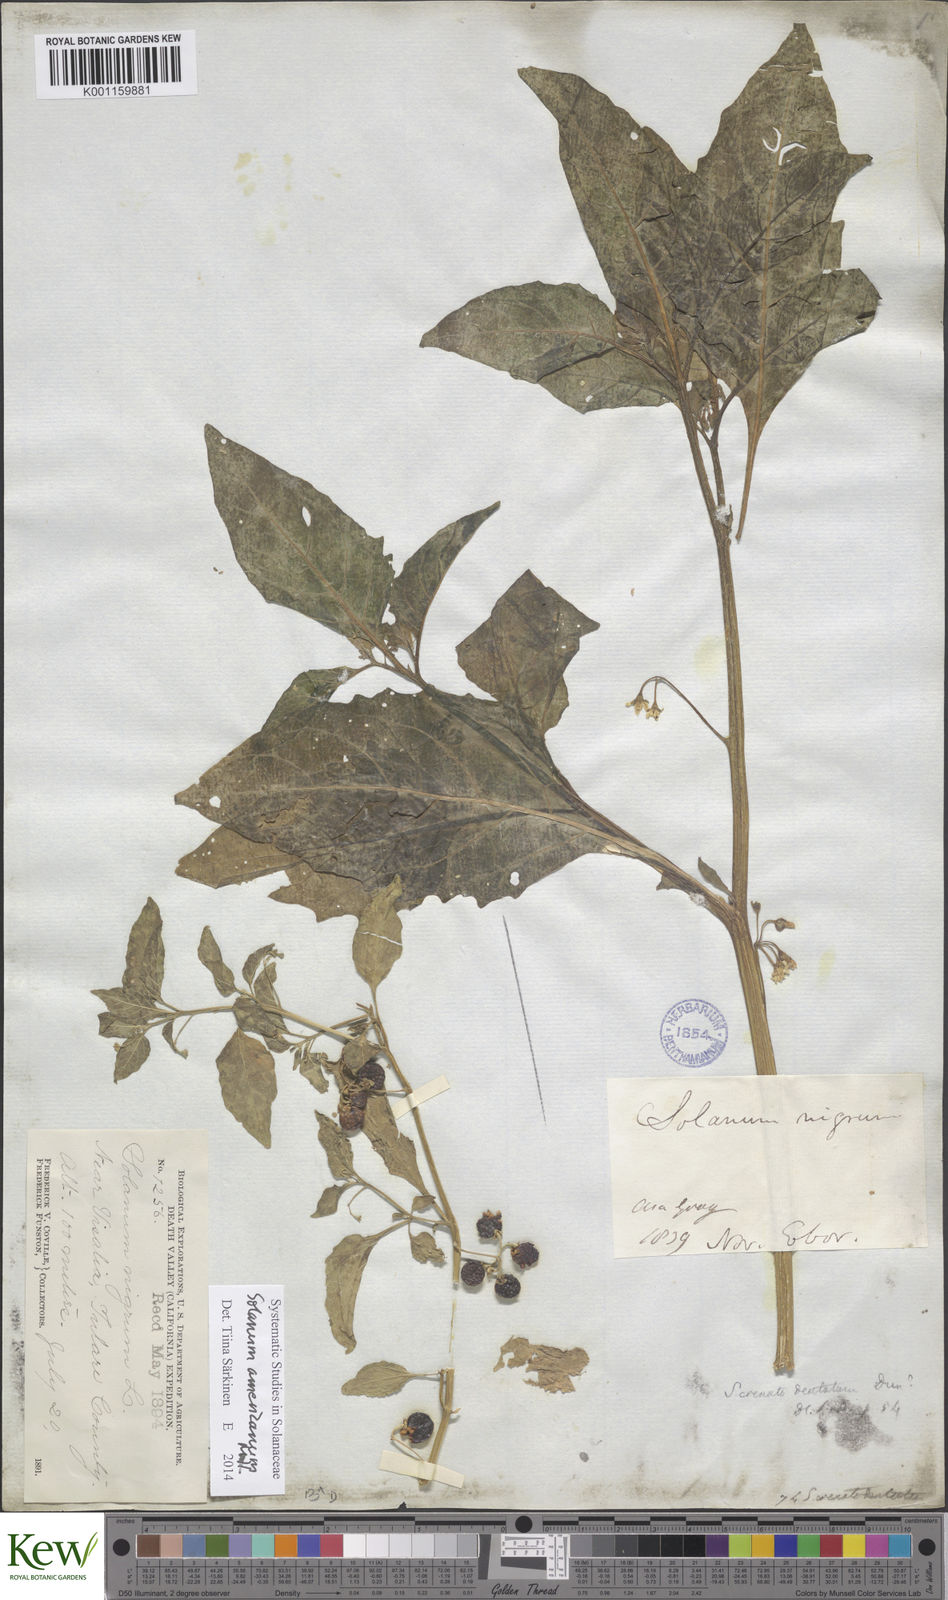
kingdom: Plantae
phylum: Tracheophyta
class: Magnoliopsida
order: Solanales
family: Solanaceae
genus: Solanum
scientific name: Solanum americanum
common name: American black nightshade
